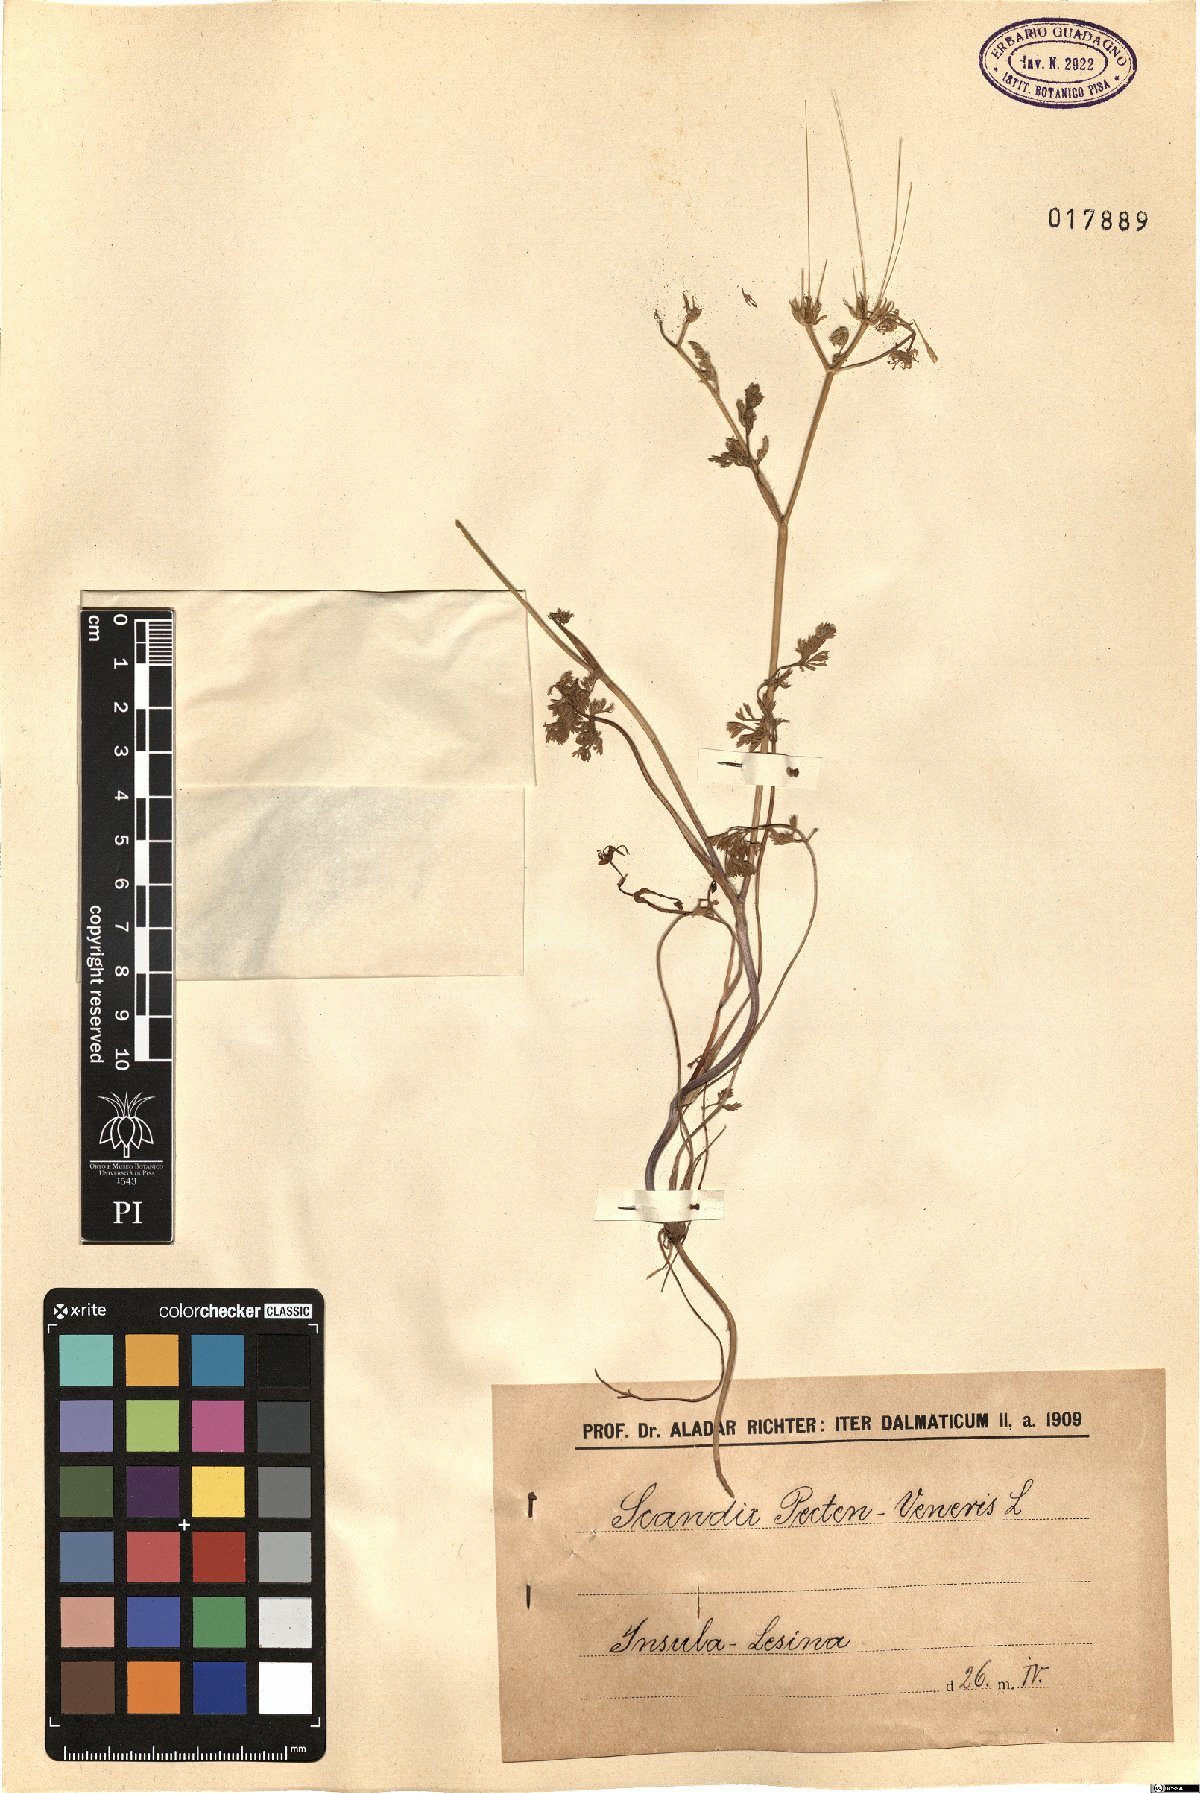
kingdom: Plantae
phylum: Tracheophyta
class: Magnoliopsida
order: Apiales
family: Apiaceae
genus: Scandix
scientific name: Scandix pecten-veneris
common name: Shepherd's-needle
